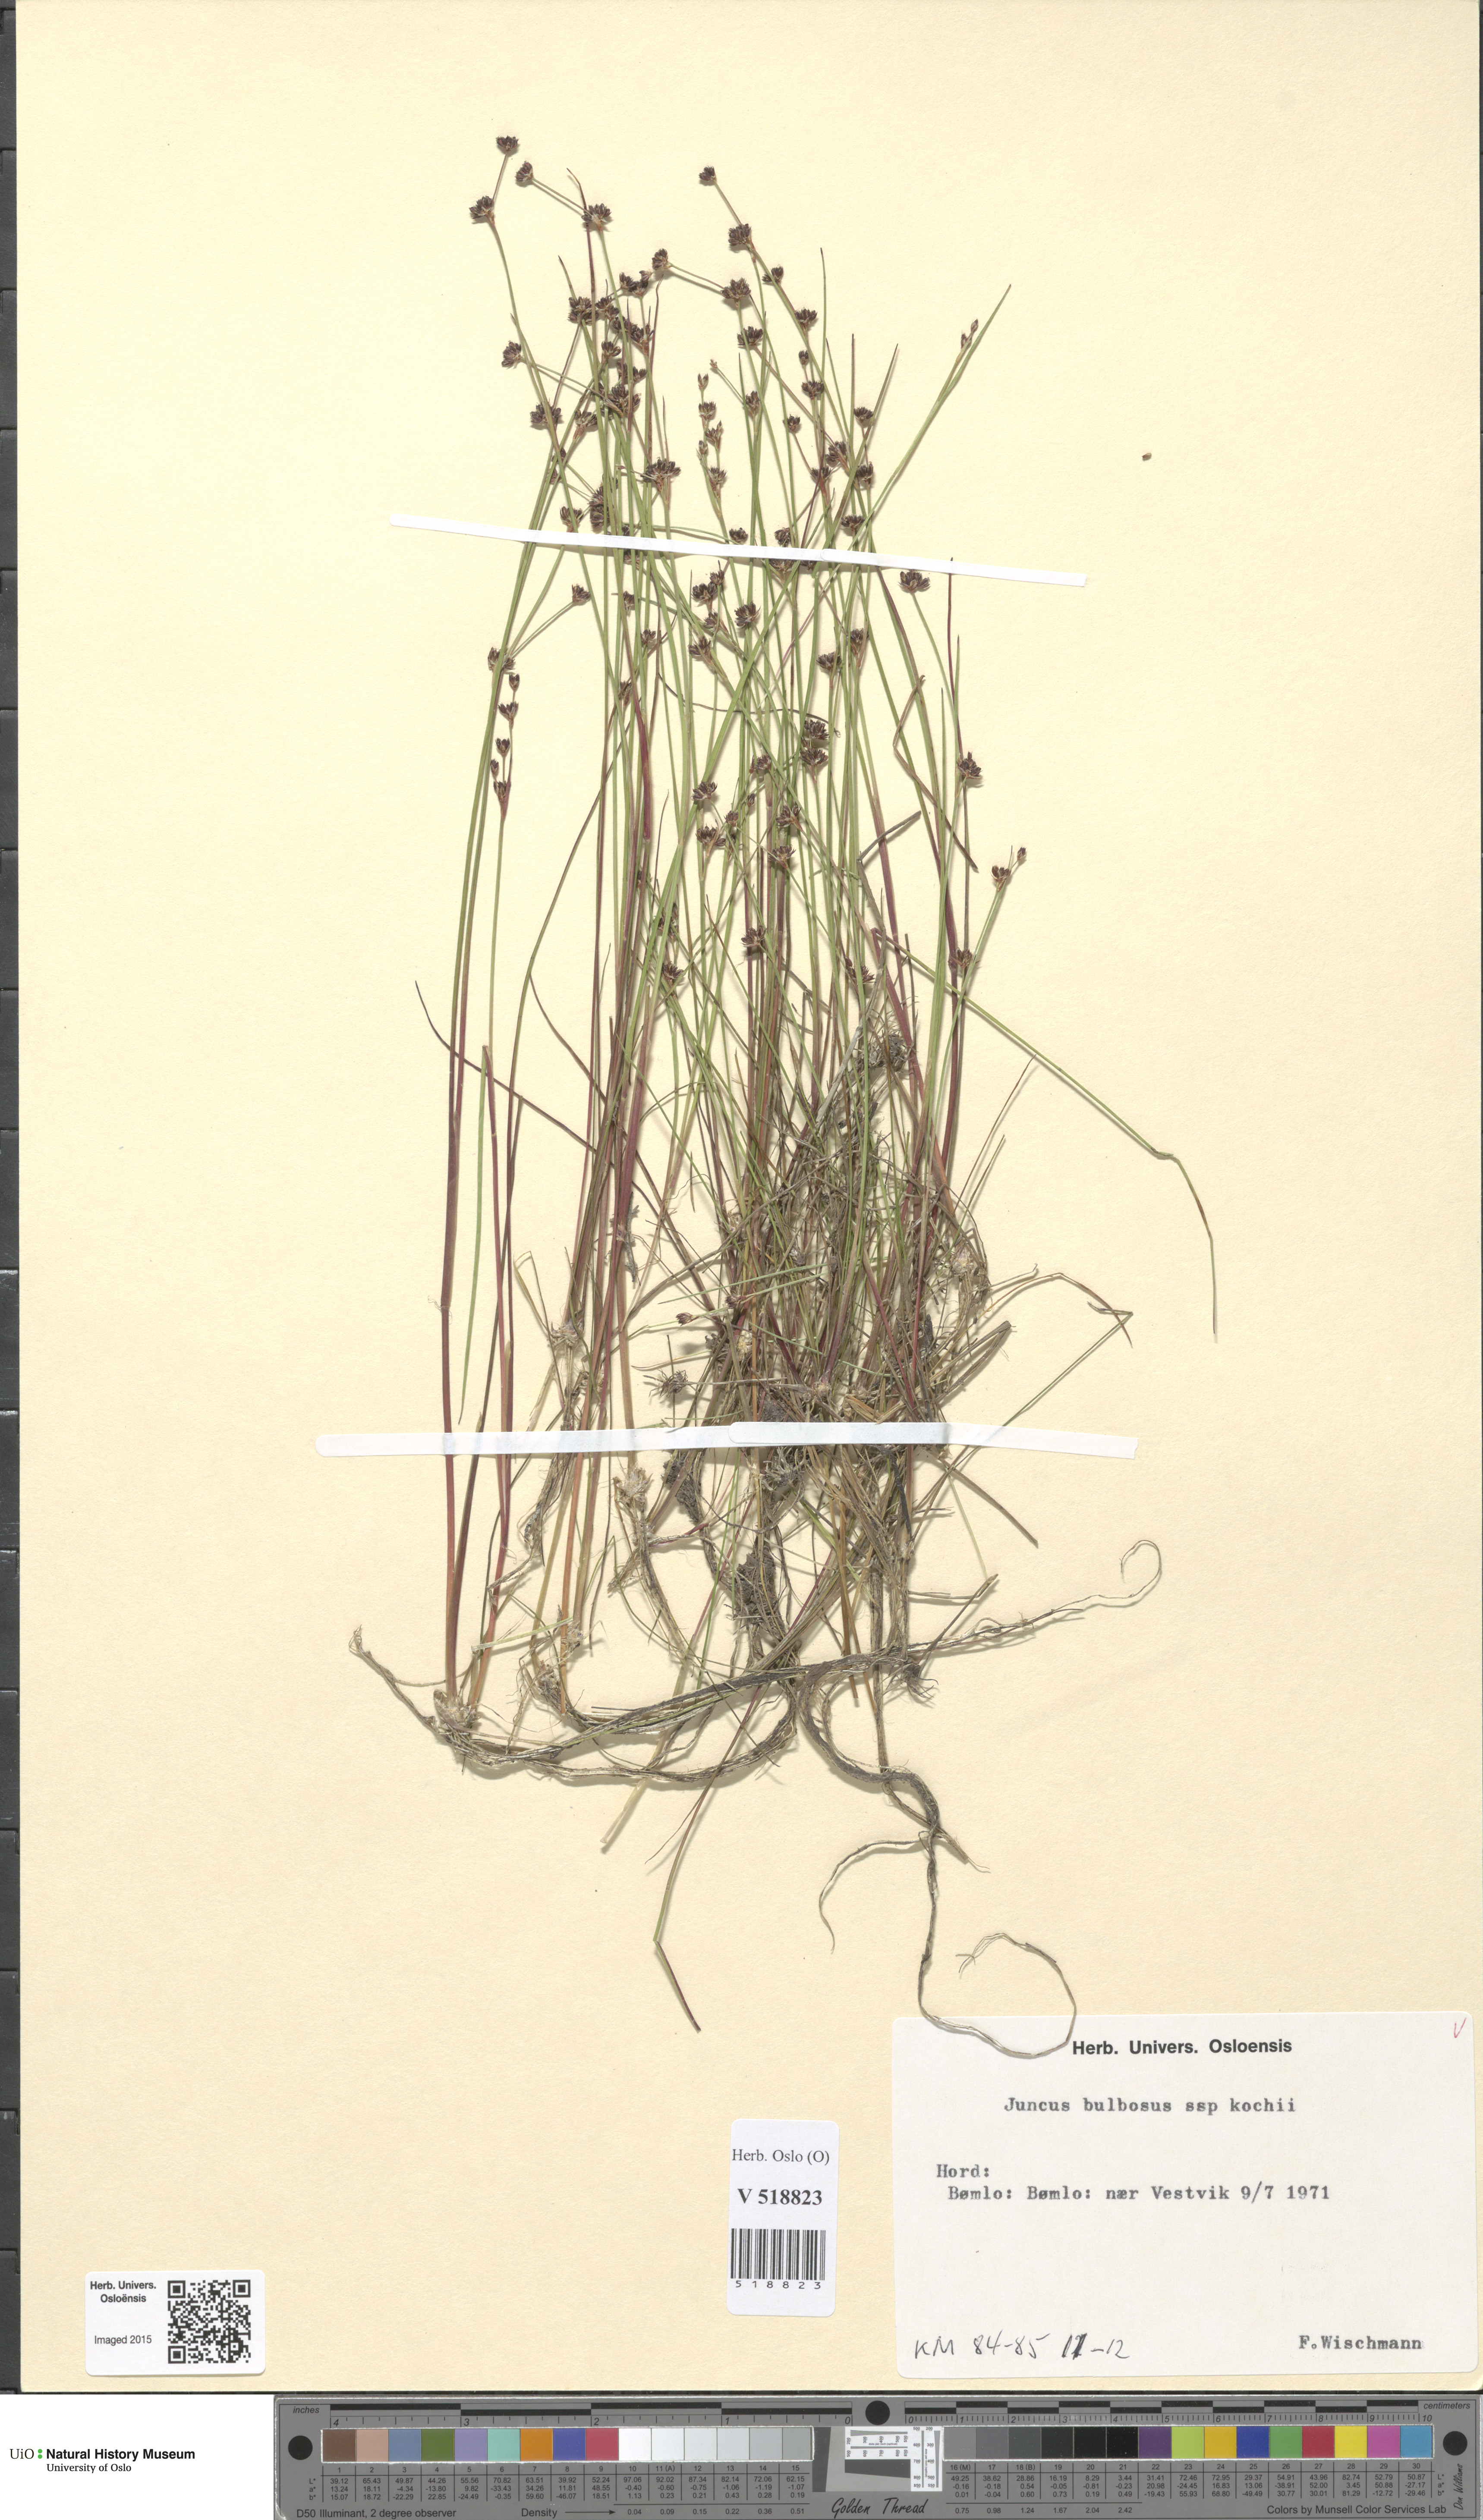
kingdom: Plantae
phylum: Tracheophyta
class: Liliopsida
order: Poales
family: Juncaceae
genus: Juncus
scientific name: Juncus bulbosus
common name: Bulbous rush
